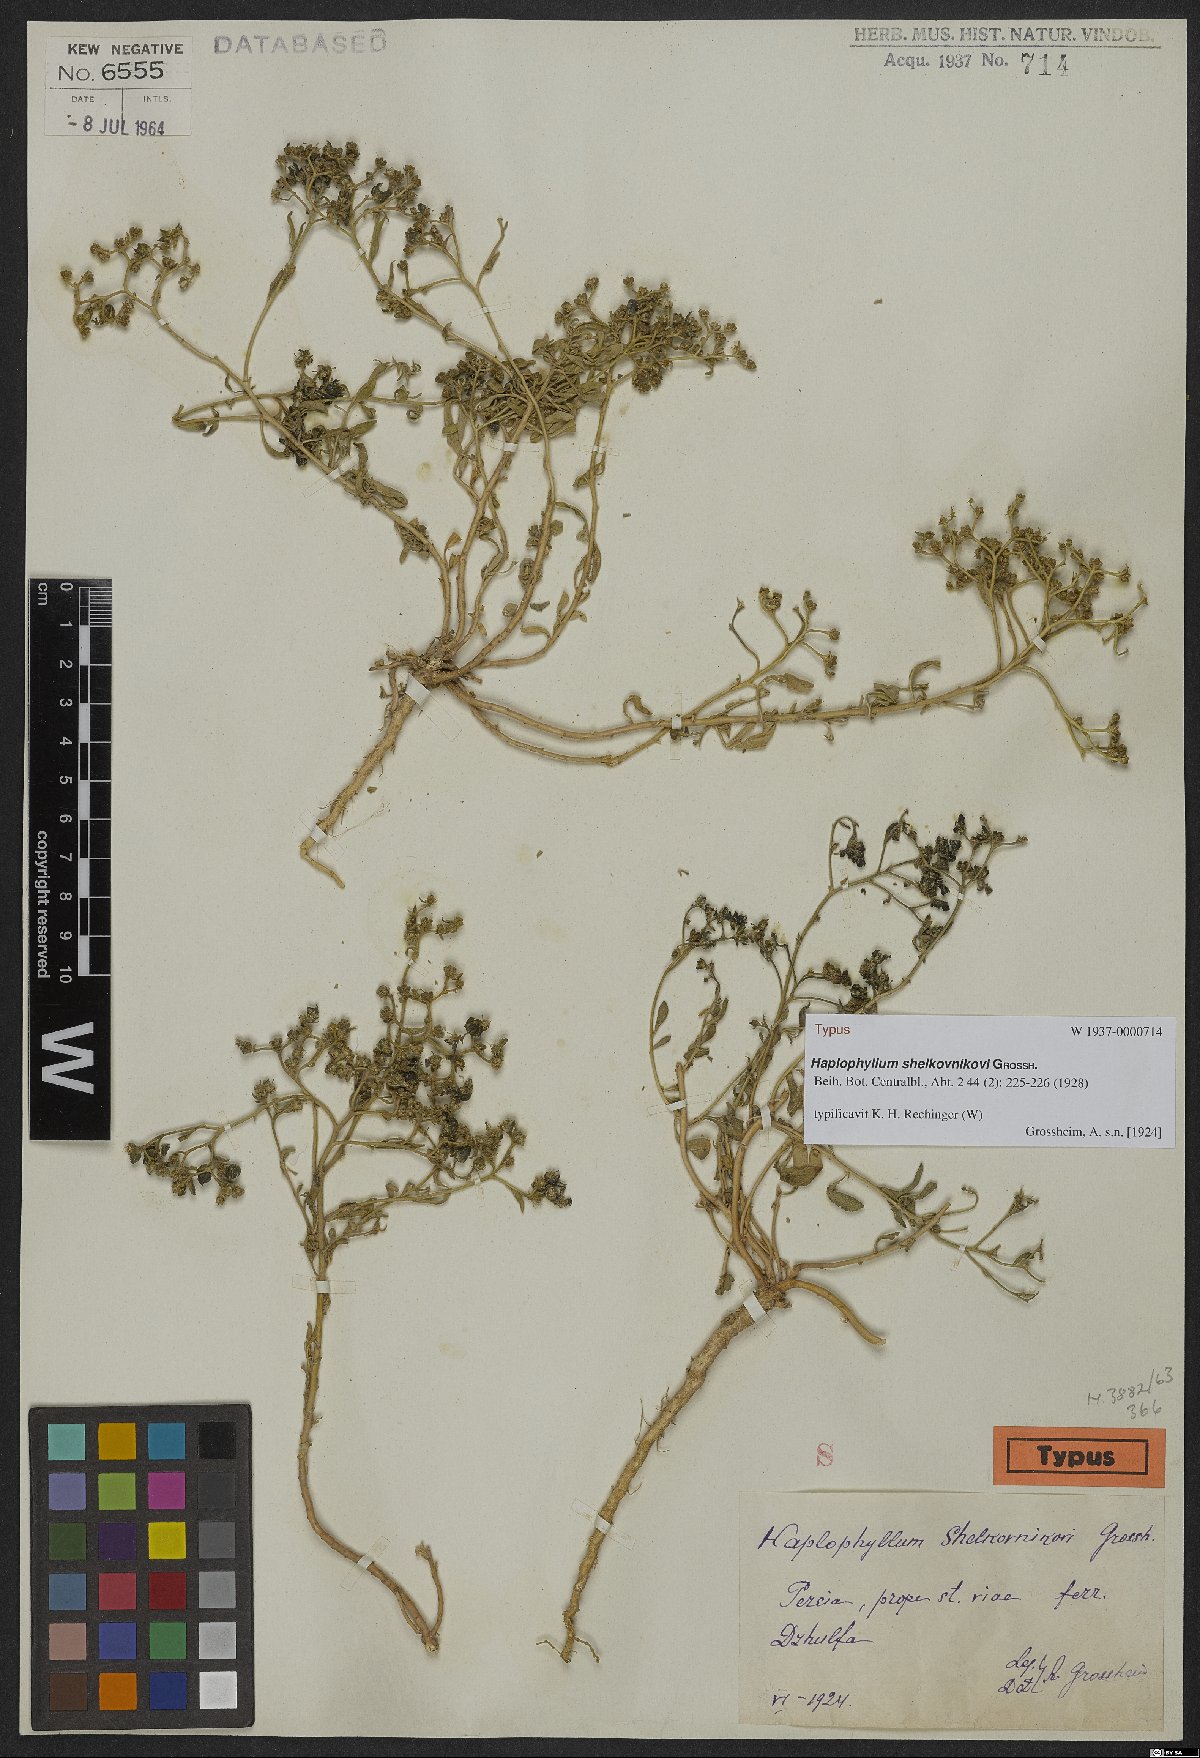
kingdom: Plantae
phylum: Tracheophyta
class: Magnoliopsida
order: Sapindales
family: Rutaceae
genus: Haplophyllum
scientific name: Haplophyllum shelkovnikovii
